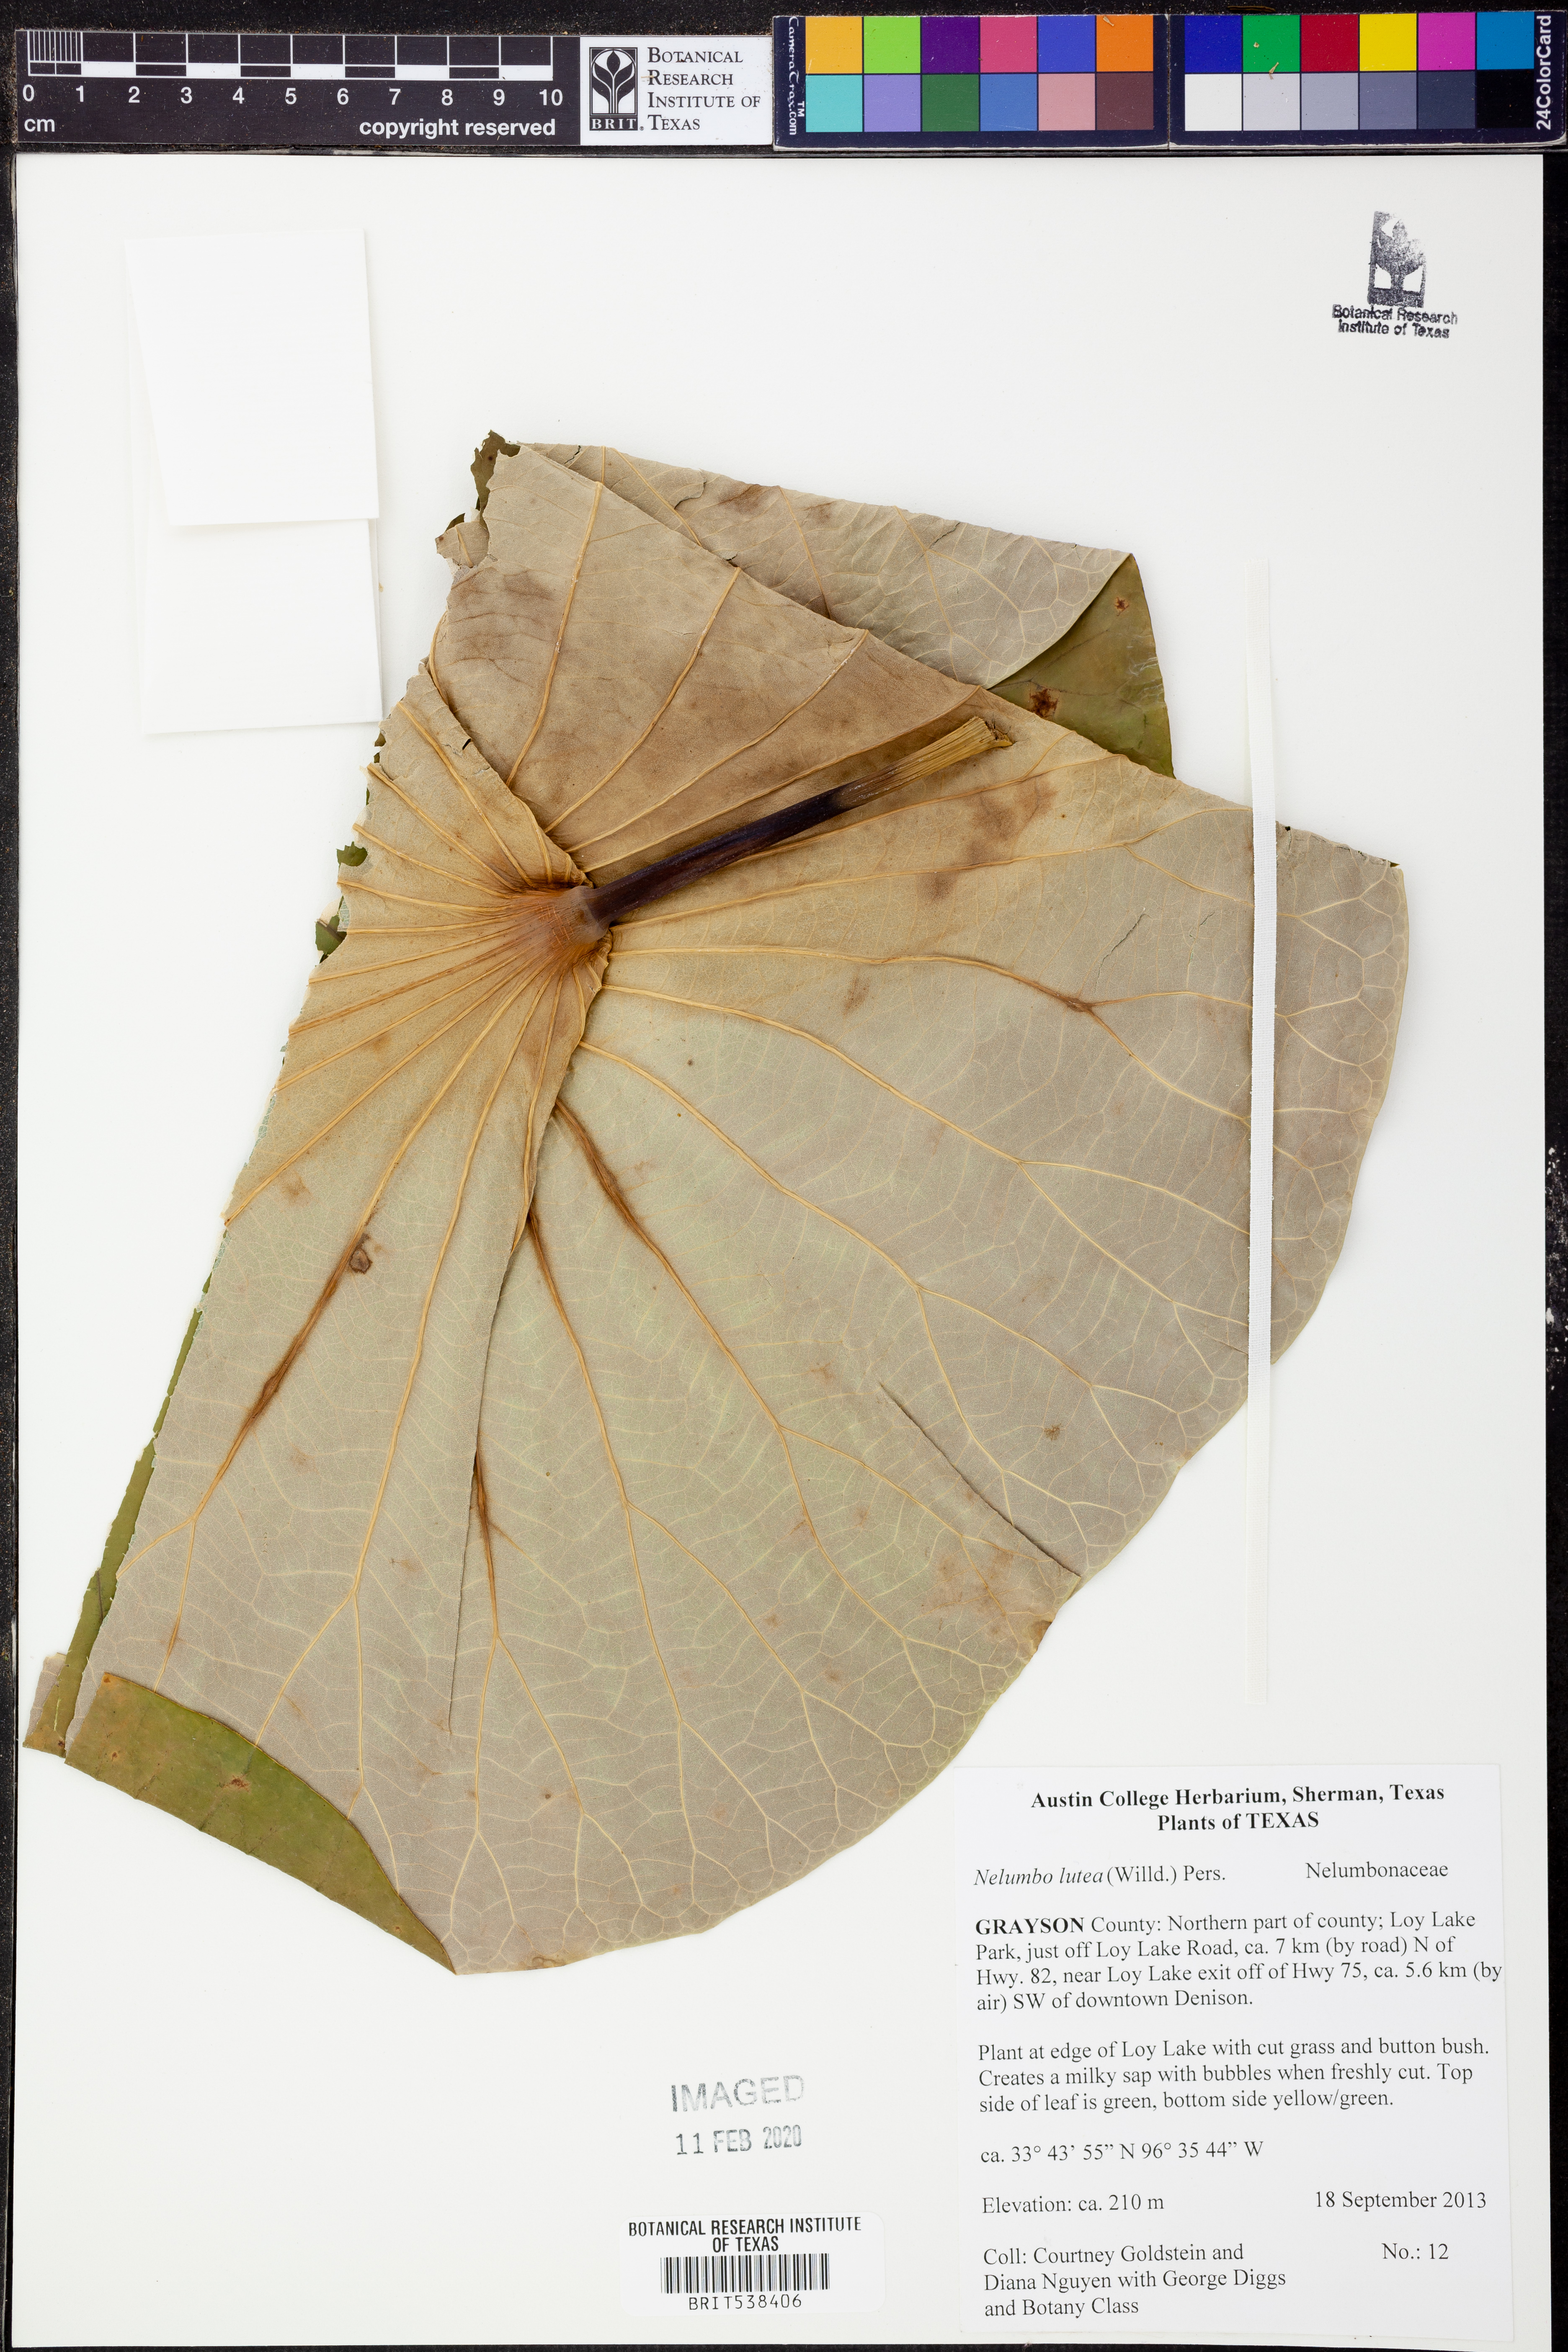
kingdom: Plantae
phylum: Tracheophyta
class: Magnoliopsida
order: Proteales
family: Nelumbonaceae
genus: Nelumbo
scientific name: Nelumbo lutea
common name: American lotus
